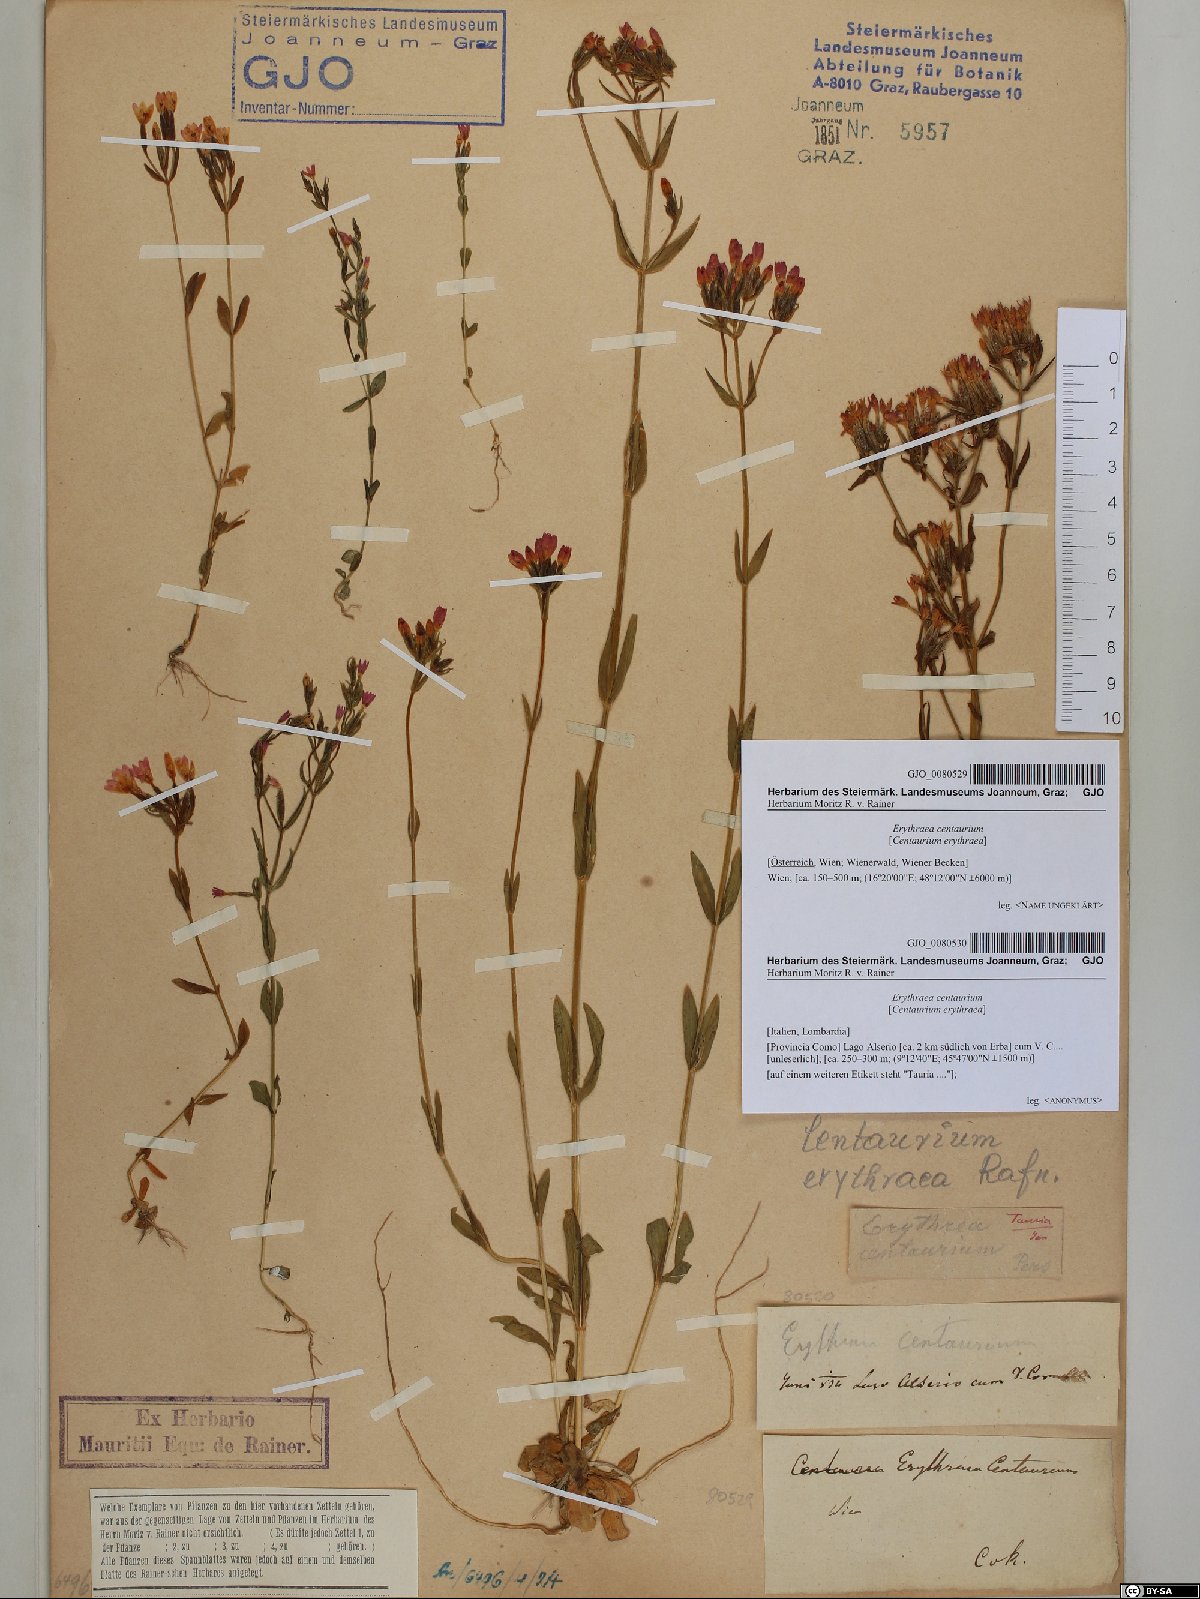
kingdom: Plantae
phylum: Tracheophyta
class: Magnoliopsida
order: Gentianales
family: Gentianaceae
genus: Centaurium
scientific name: Centaurium erythraea
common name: Common centaury
